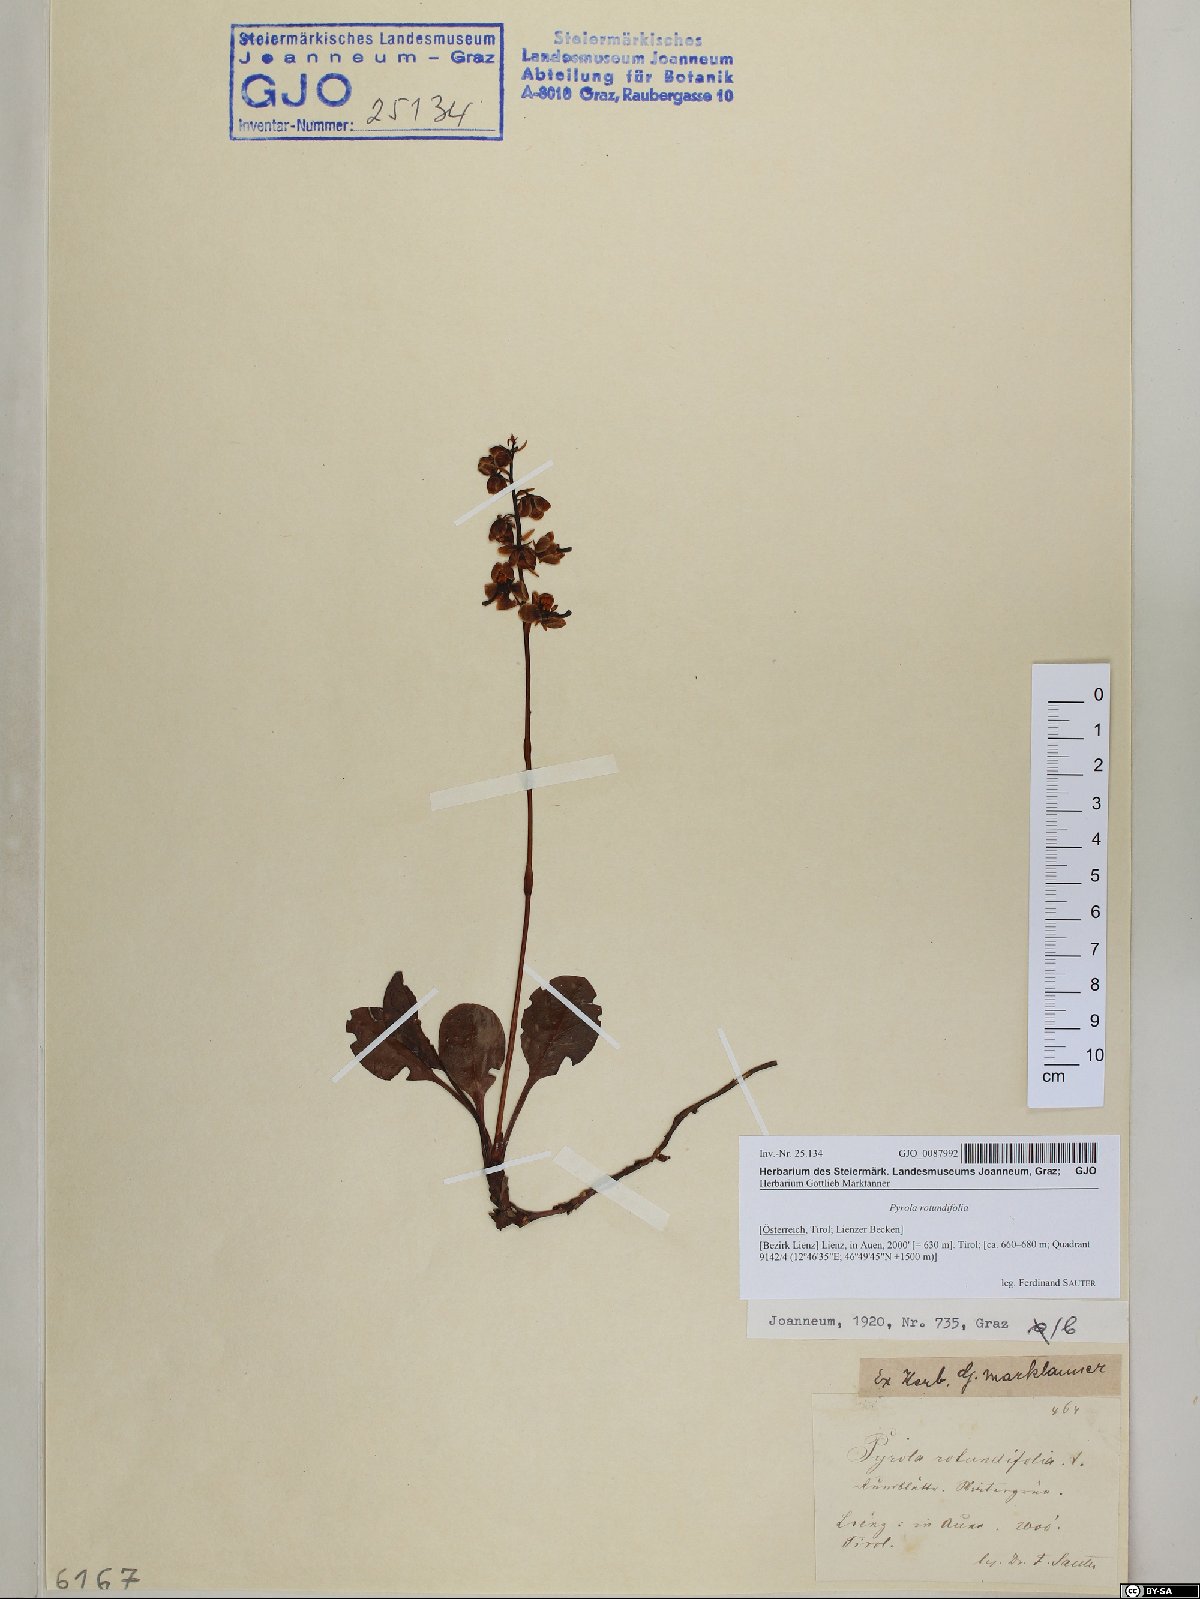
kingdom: Plantae
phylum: Tracheophyta
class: Magnoliopsida
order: Ericales
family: Ericaceae
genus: Pyrola
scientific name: Pyrola rotundifolia
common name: Round-leaved wintergreen
